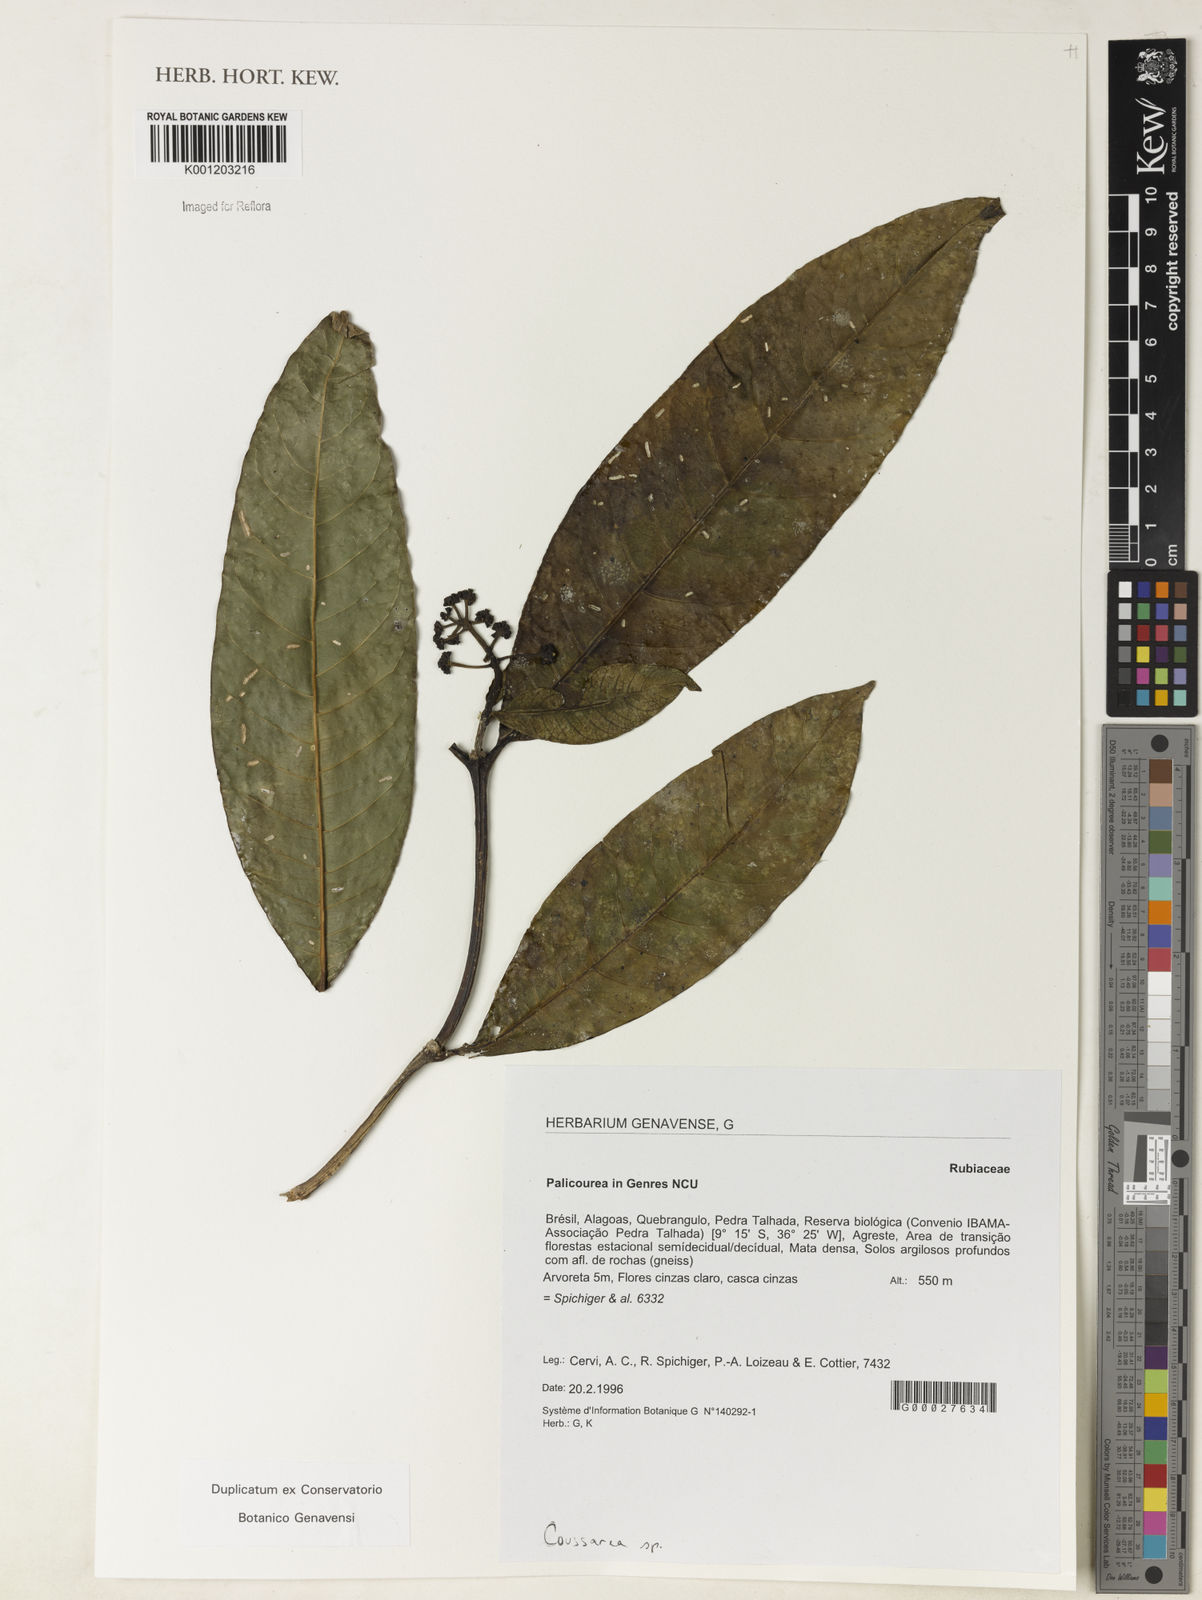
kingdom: Plantae
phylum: Tracheophyta
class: Magnoliopsida
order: Gentianales
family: Rubiaceae
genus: Palicourea
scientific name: Palicourea
